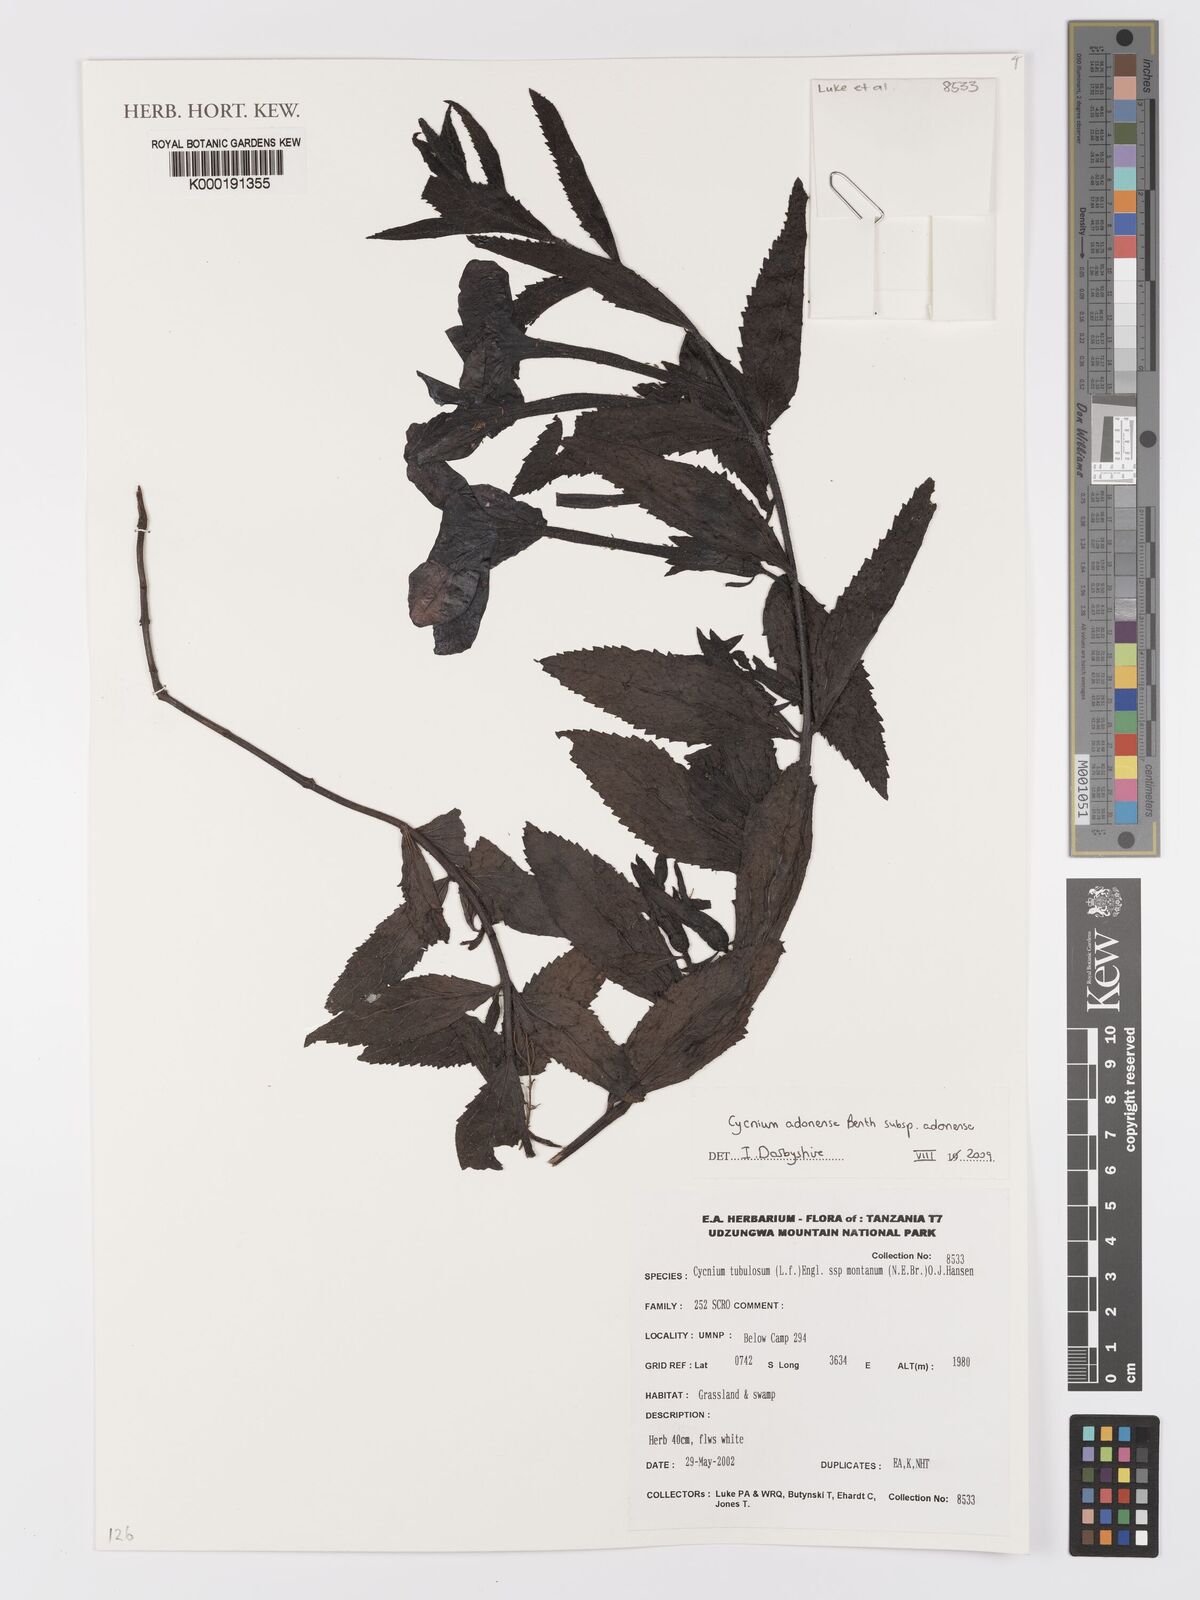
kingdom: Plantae
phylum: Tracheophyta
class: Magnoliopsida
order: Lamiales
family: Orobanchaceae
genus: Cycnium
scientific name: Cycnium adonense
